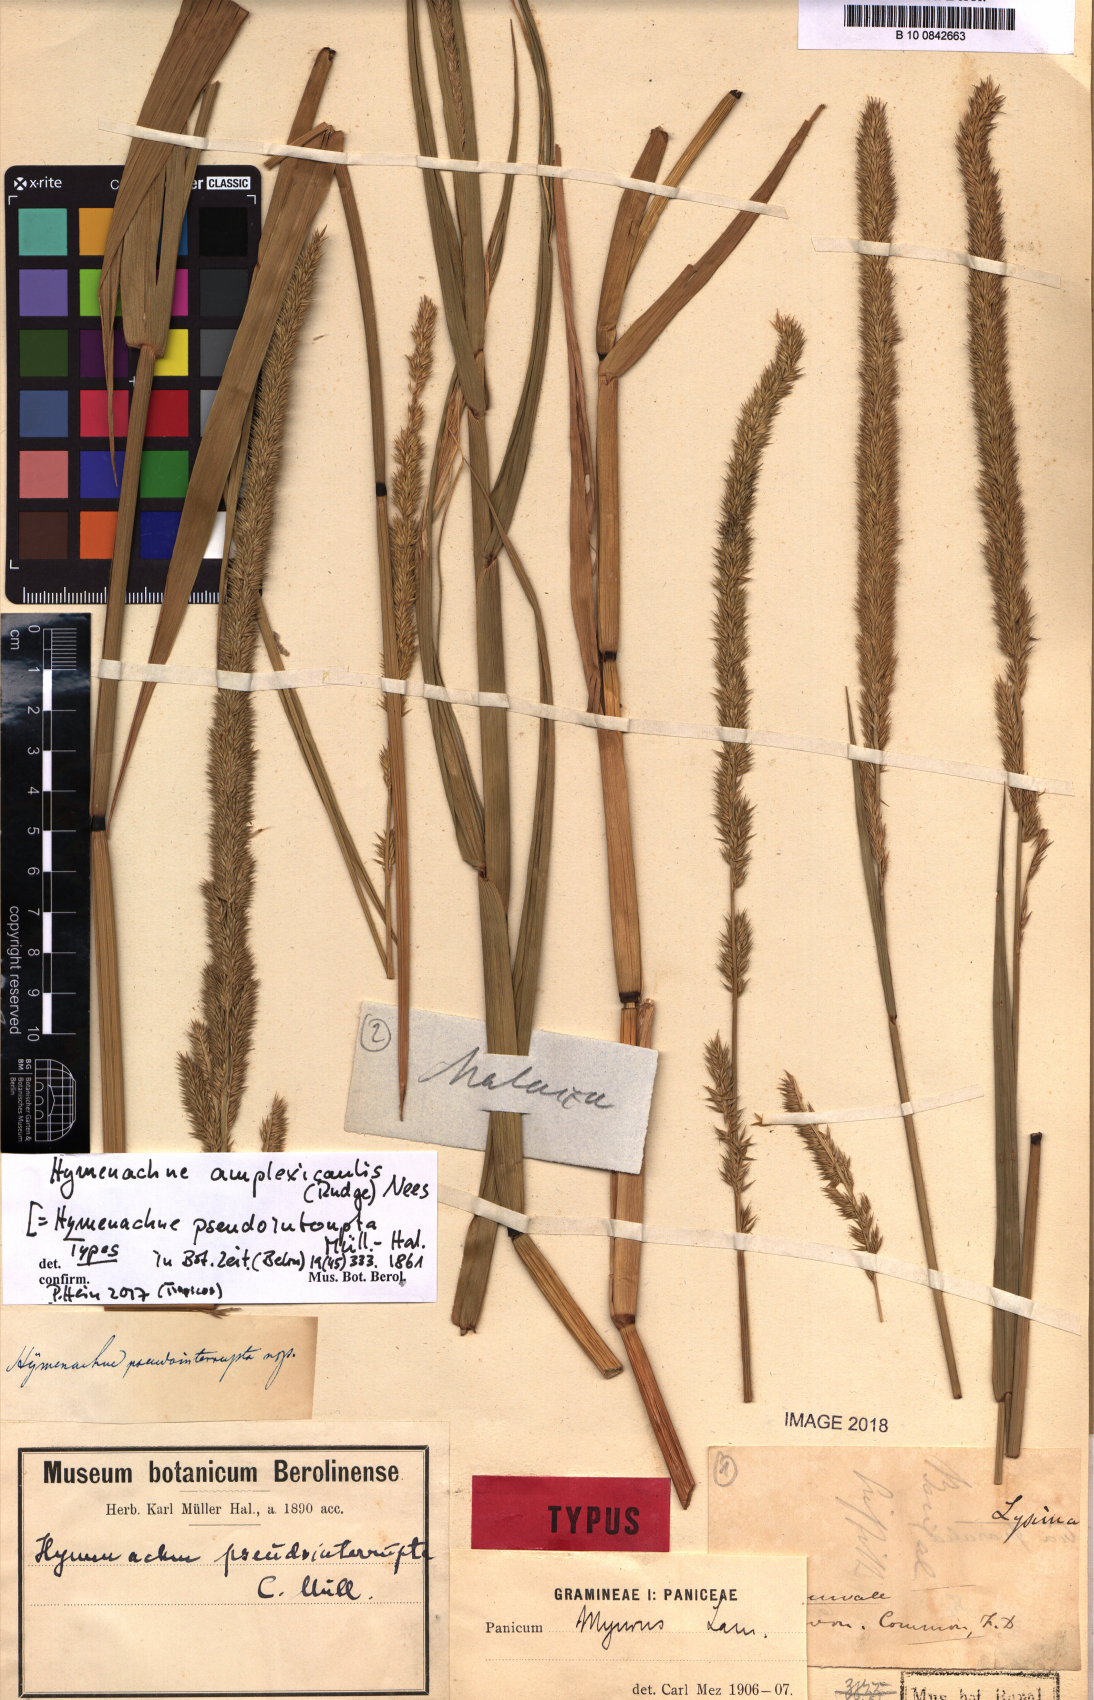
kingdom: Plantae
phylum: Tracheophyta
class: Liliopsida
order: Poales
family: Poaceae
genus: Hymenachne
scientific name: Hymenachne amplexicaulis
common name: Olive hymenachne
